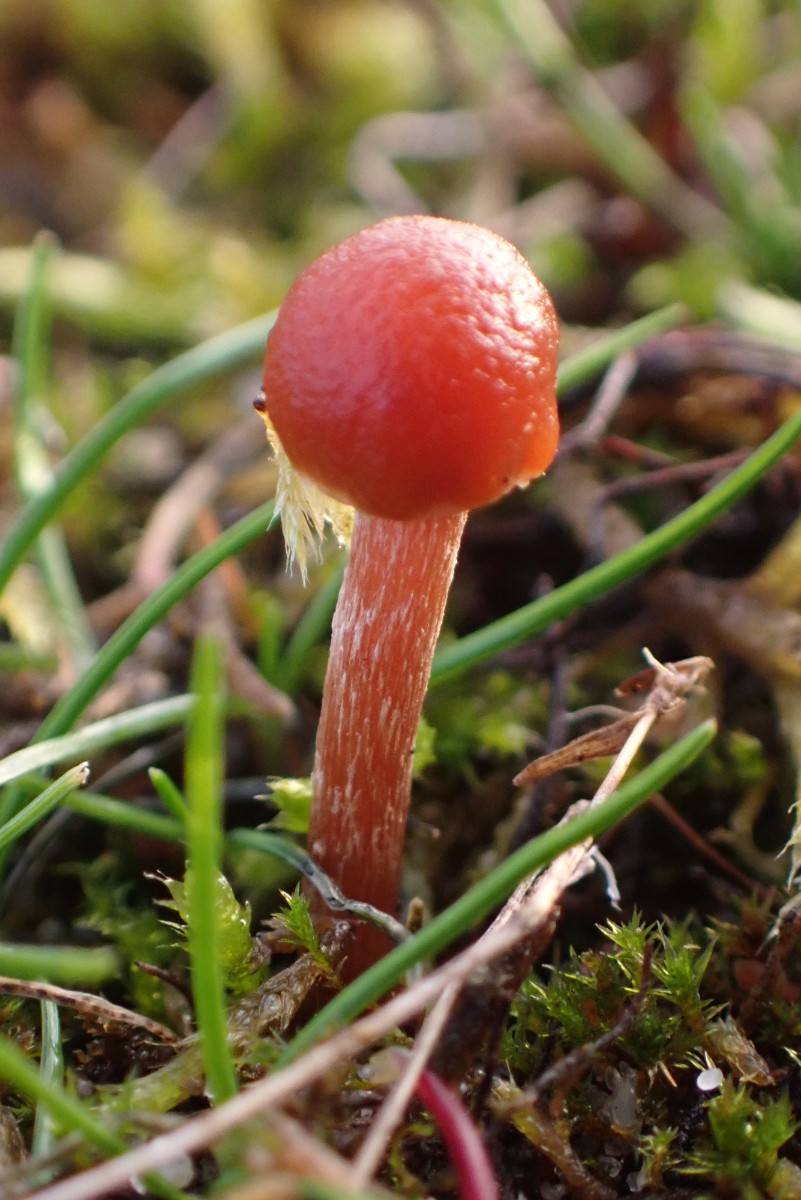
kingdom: Fungi
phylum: Basidiomycota
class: Agaricomycetes
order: Agaricales
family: Strophariaceae
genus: Deconica
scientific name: Deconica
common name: stråhat
